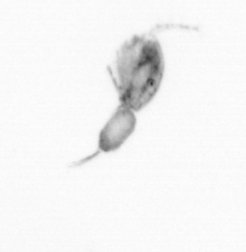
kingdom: Animalia
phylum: Arthropoda
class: Copepoda
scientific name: Copepoda
